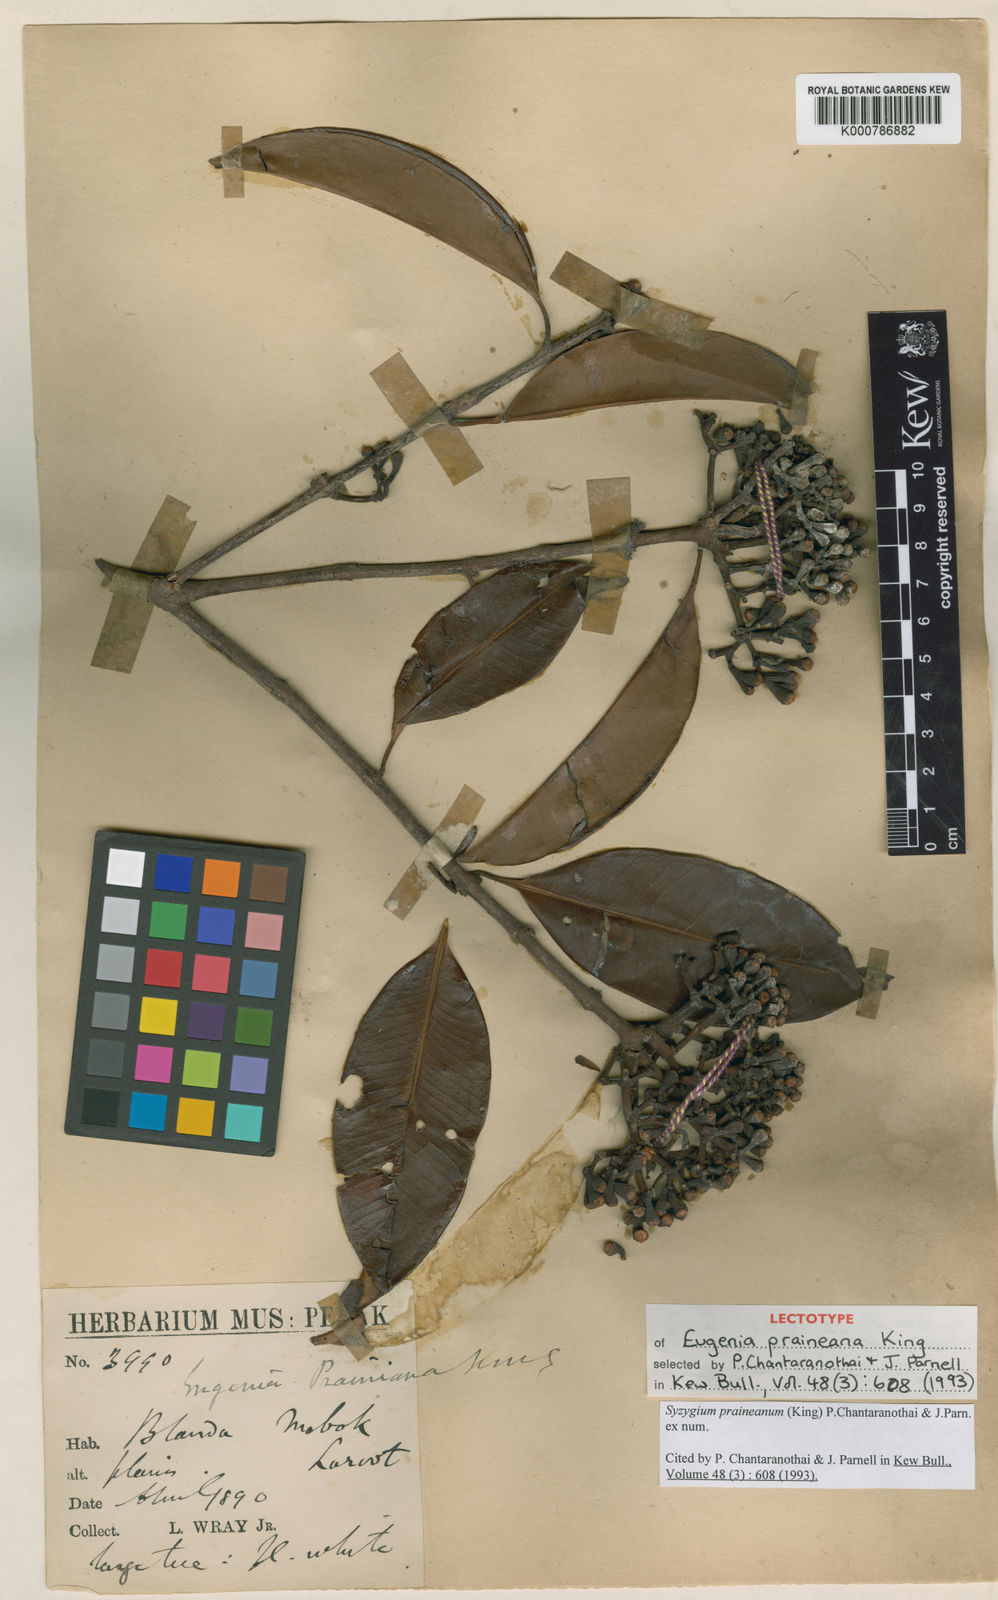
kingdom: Plantae
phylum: Tracheophyta
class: Magnoliopsida
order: Myrtales
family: Myrtaceae
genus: Syzygium
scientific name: Syzygium praineanum
